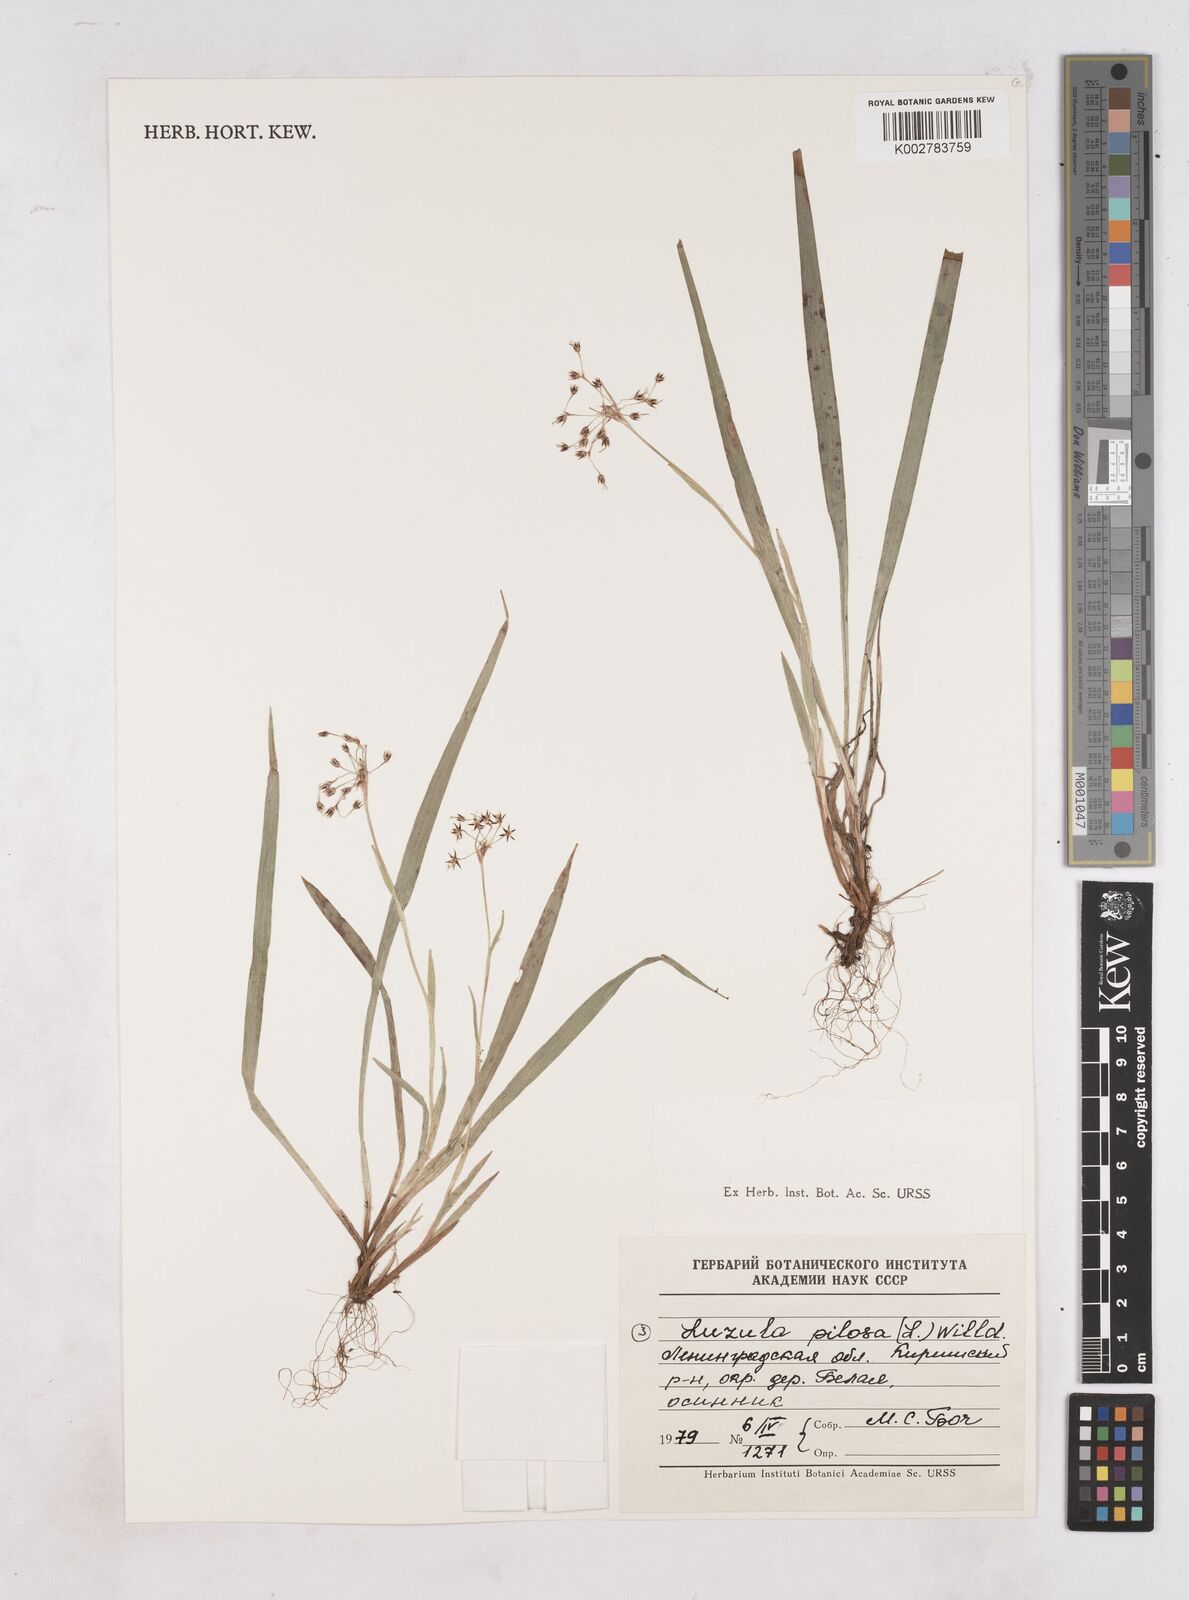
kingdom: Plantae
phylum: Tracheophyta
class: Liliopsida
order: Poales
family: Juncaceae
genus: Luzula
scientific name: Luzula pilosa
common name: Hairy wood-rush
